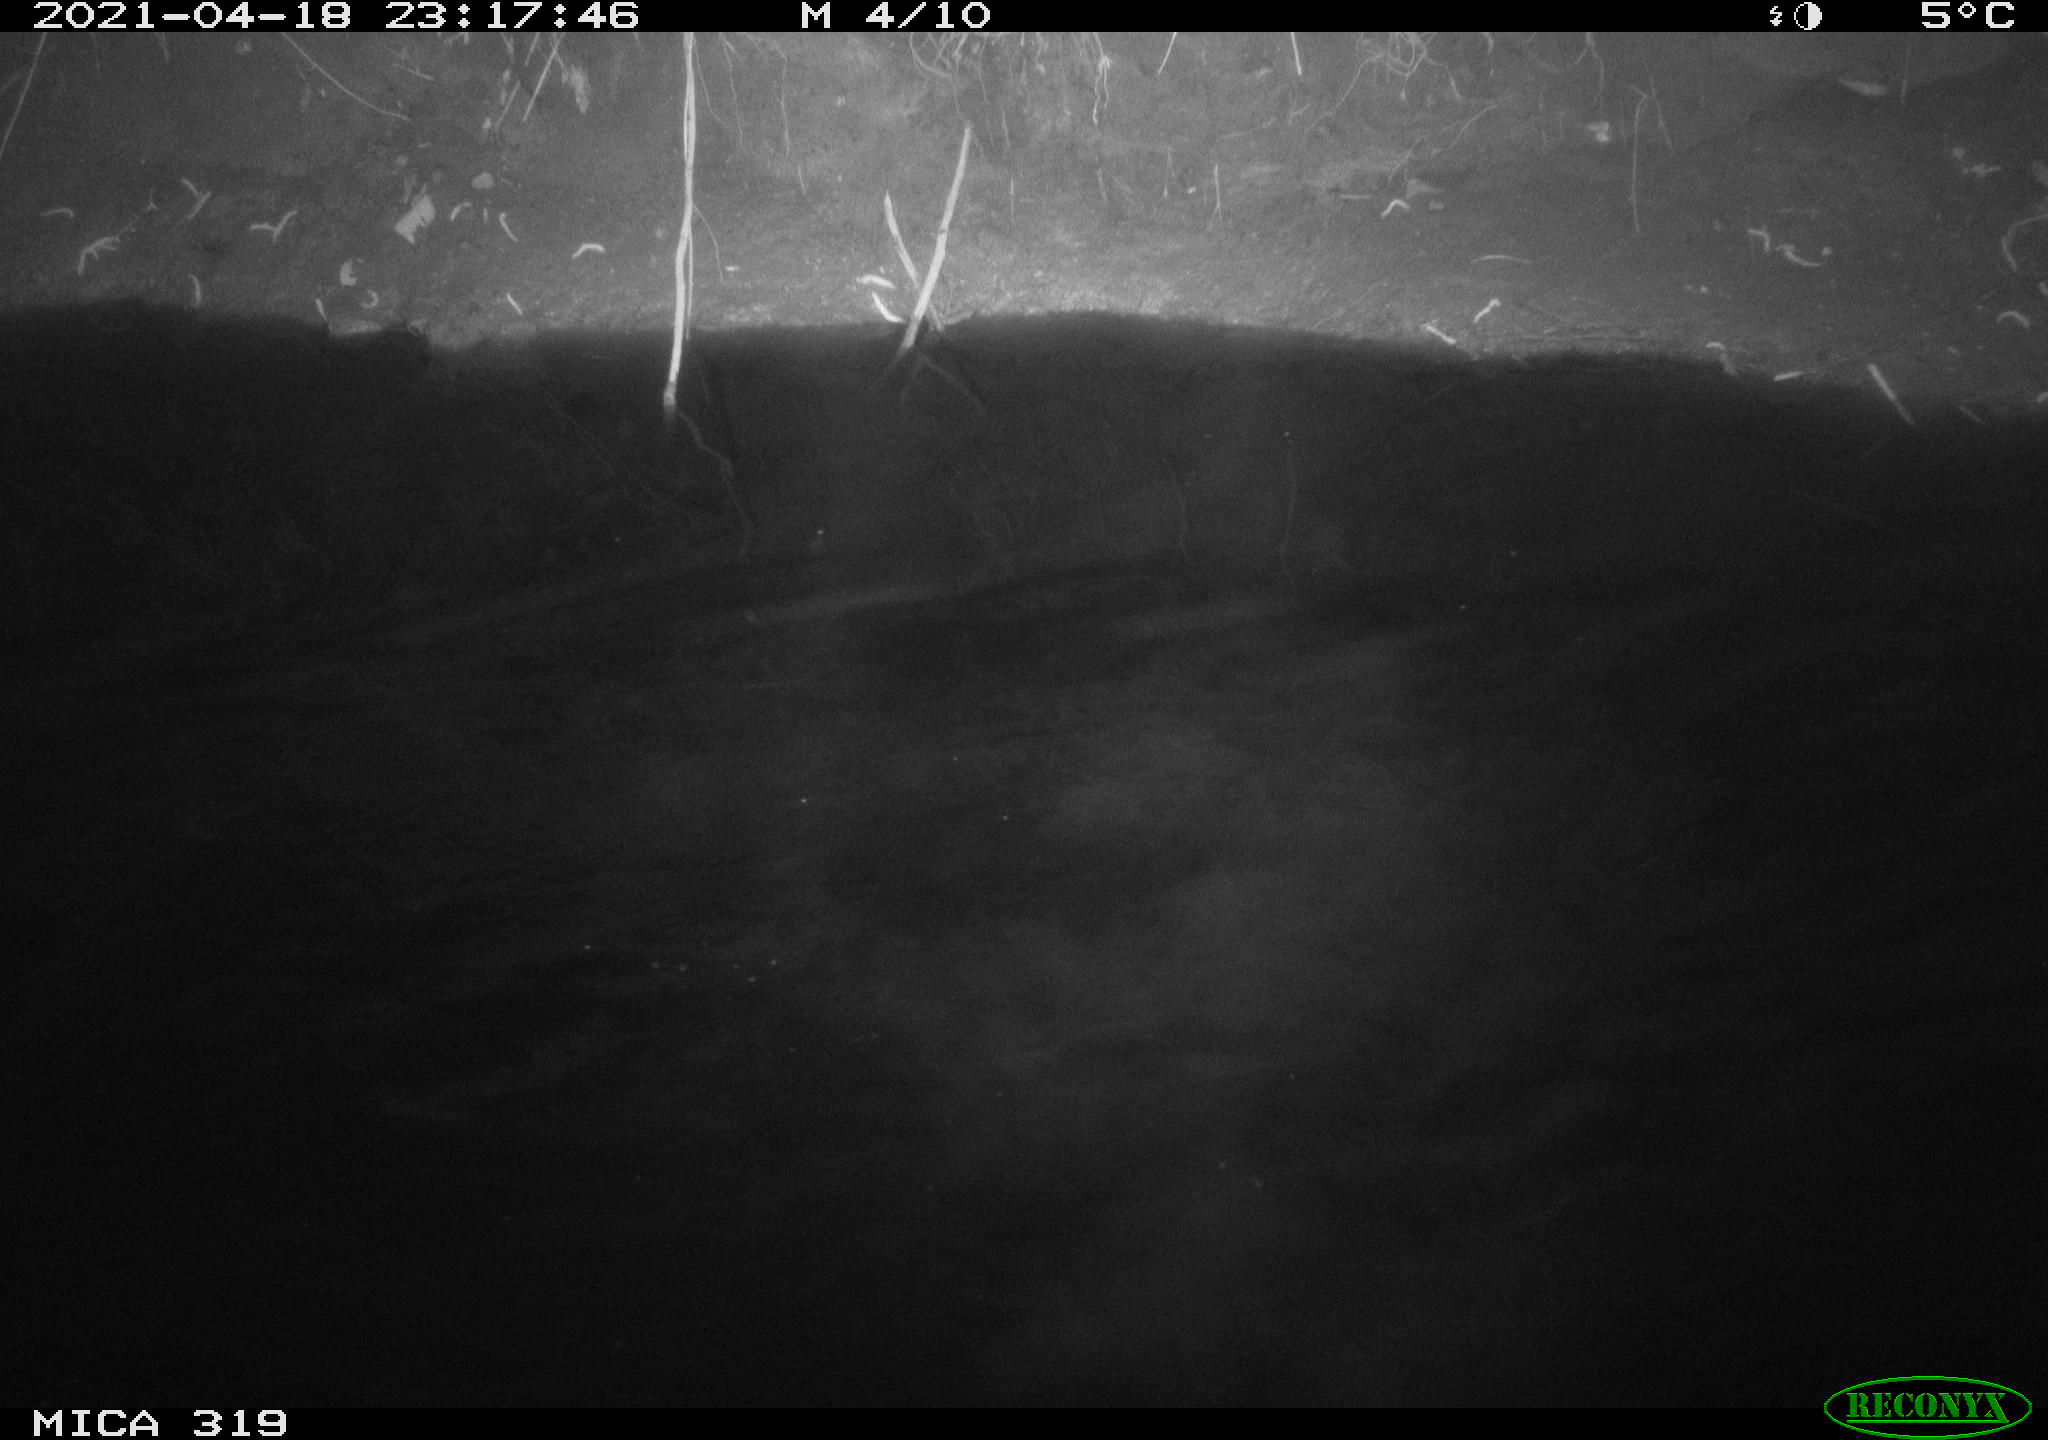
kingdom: Animalia
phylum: Chordata
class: Aves
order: Anseriformes
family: Anatidae
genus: Anas
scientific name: Anas platyrhynchos
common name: Mallard
